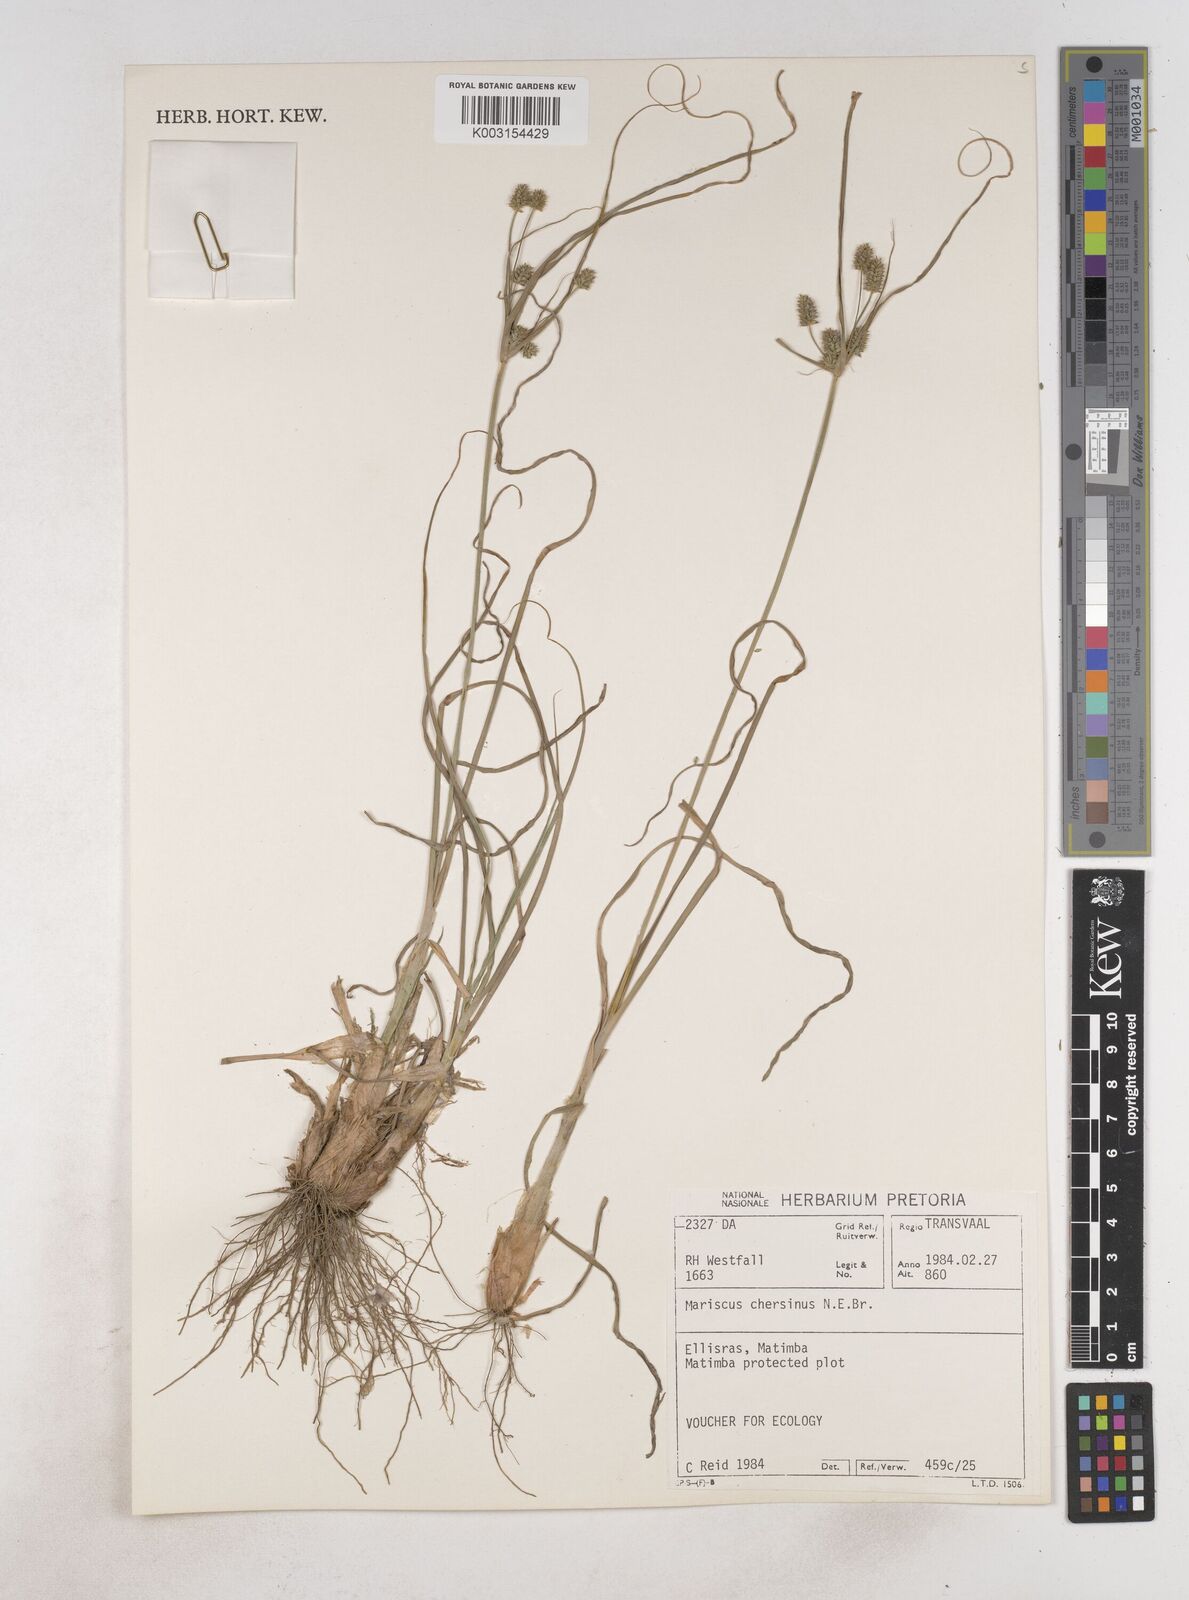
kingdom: Plantae
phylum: Tracheophyta
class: Liliopsida
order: Poales
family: Cyperaceae
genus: Cyperus
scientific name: Cyperus chersinus
